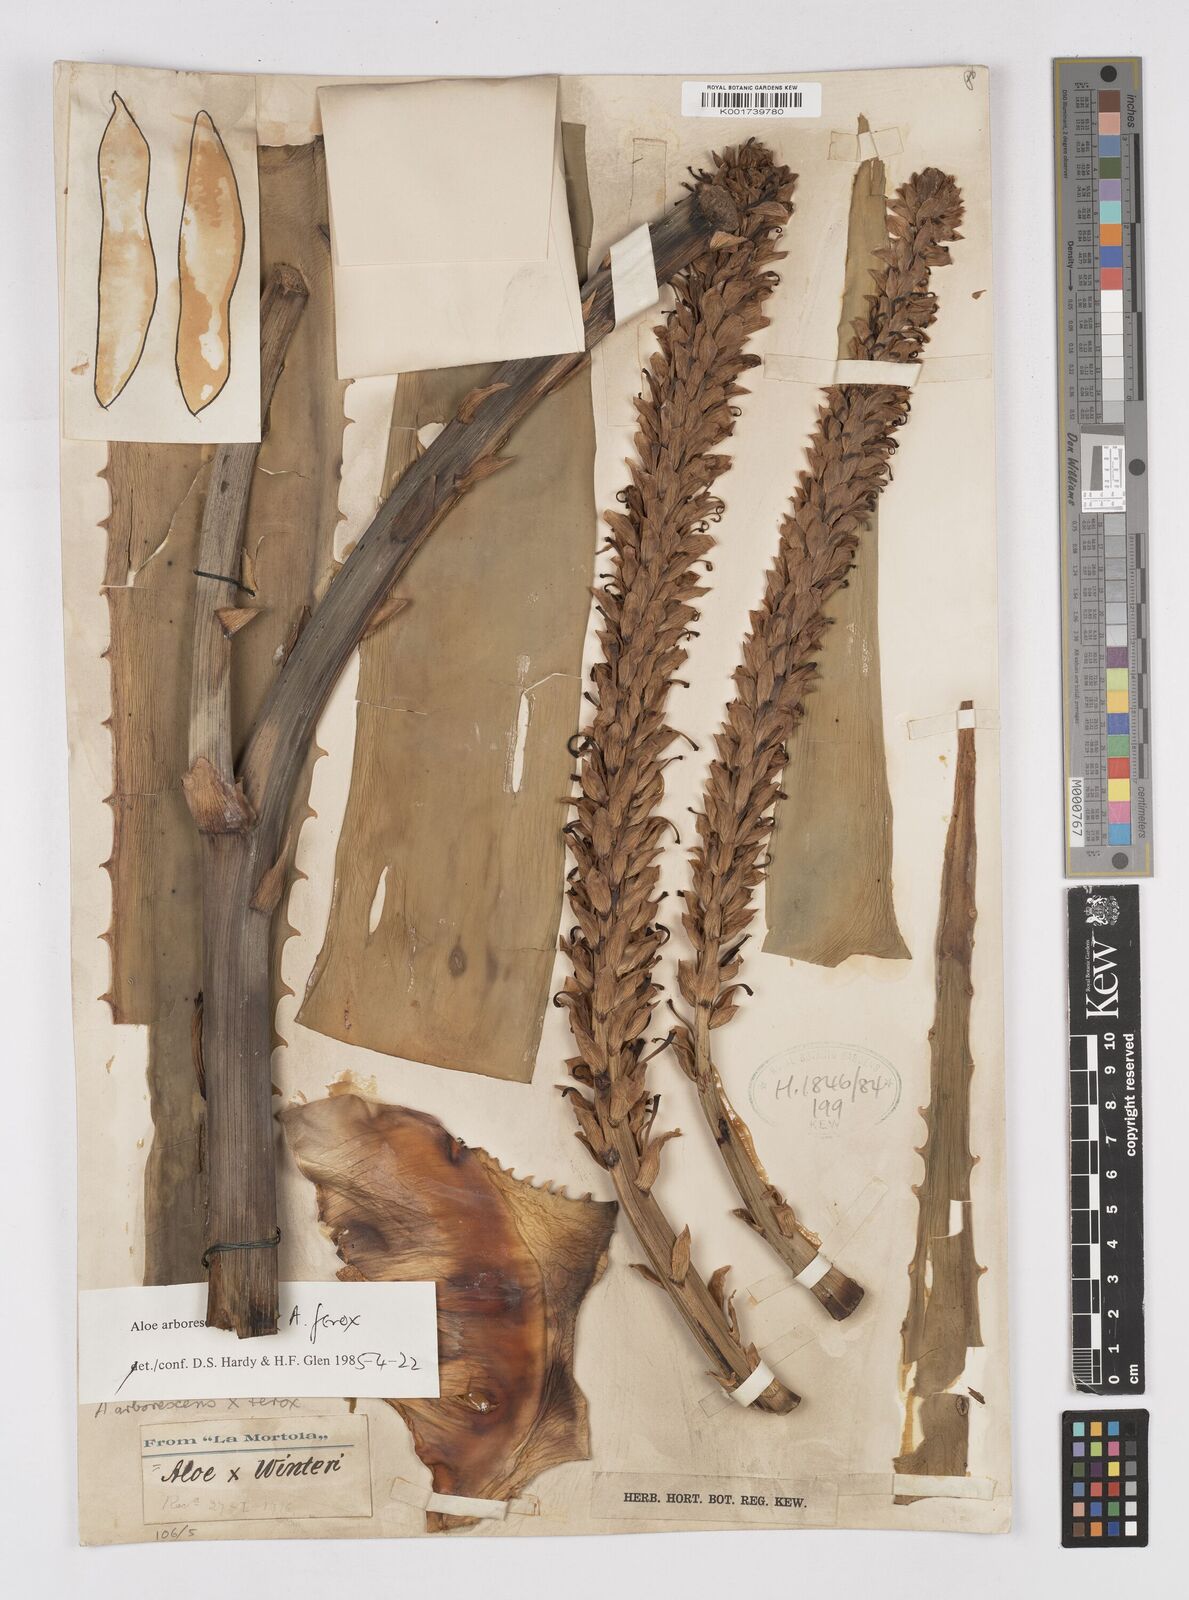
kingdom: Plantae
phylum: Tracheophyta
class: Liliopsida
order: Asparagales
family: Asphodelaceae
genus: Aloe
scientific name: Aloe arborescens
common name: Candelabra aloe
